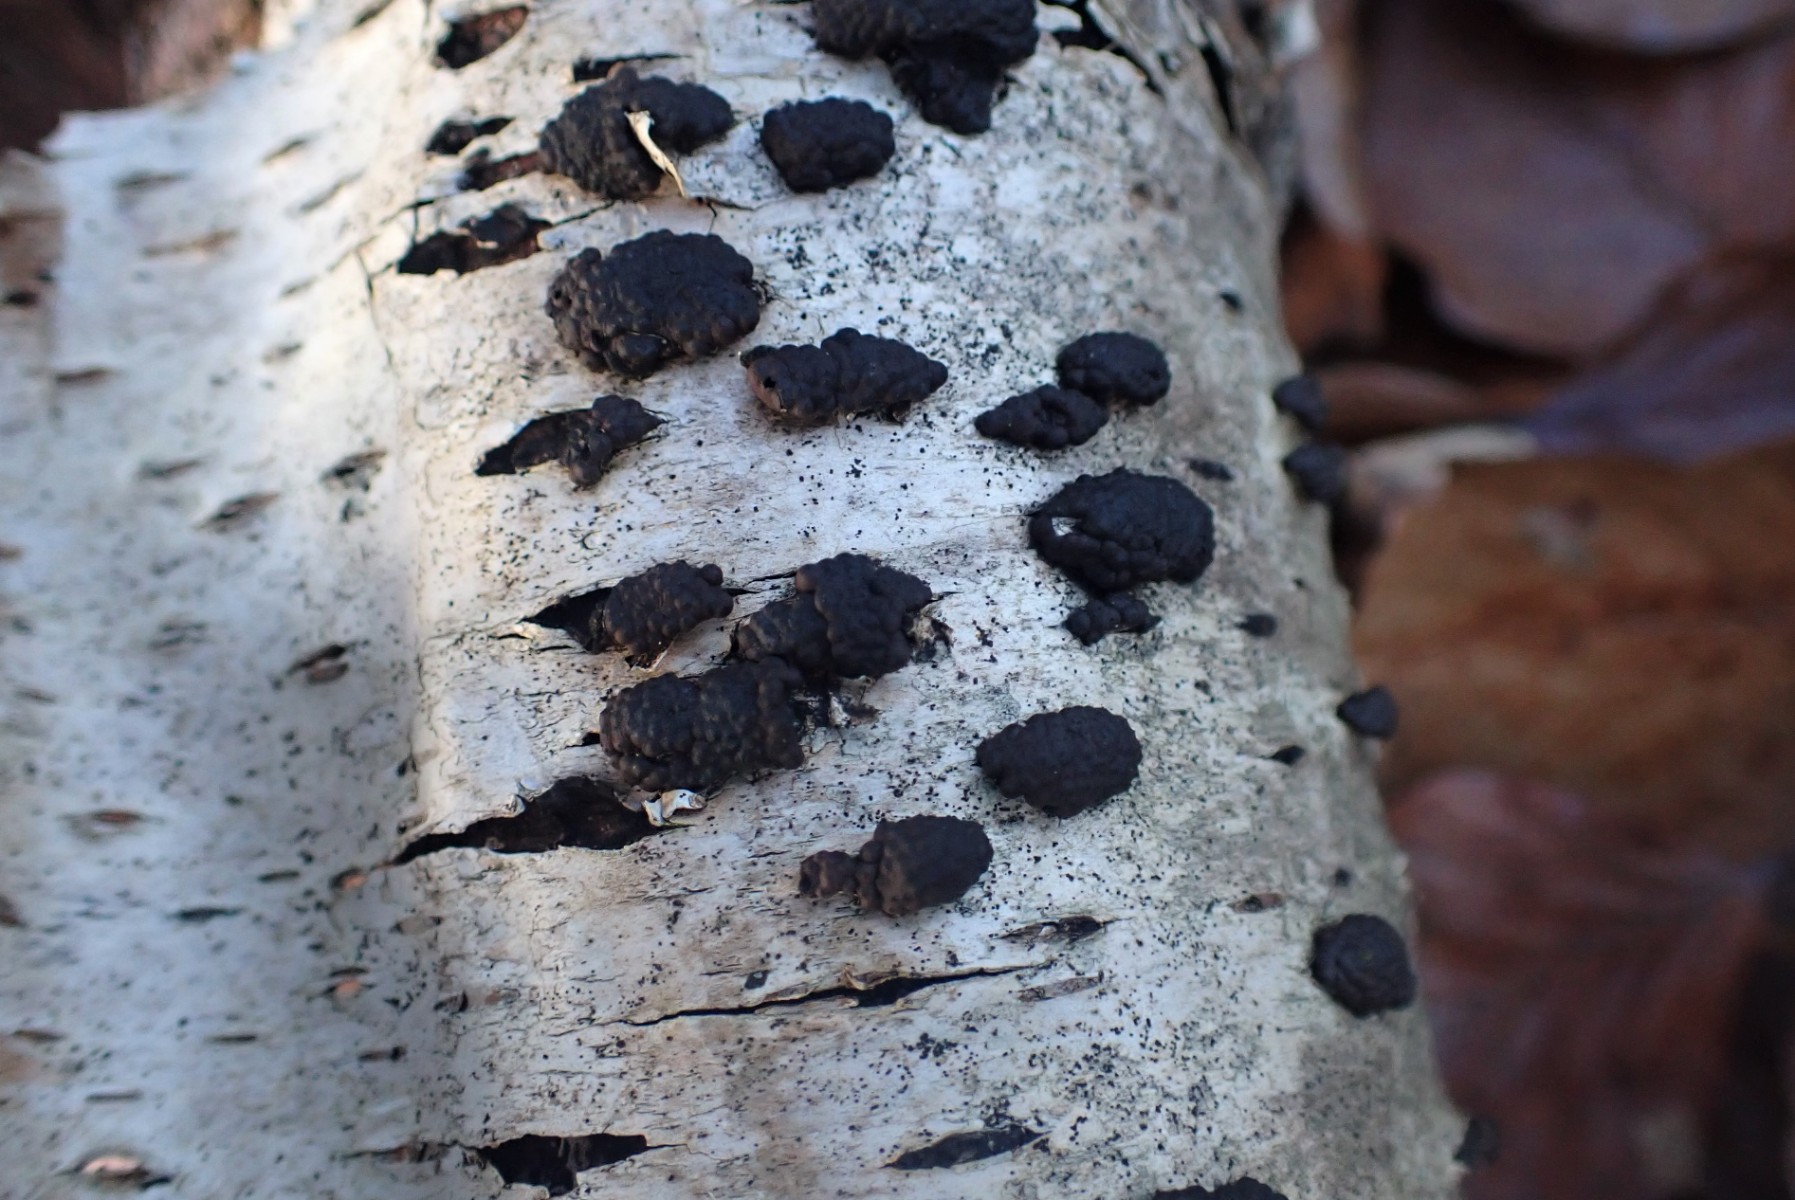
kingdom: Fungi
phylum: Ascomycota
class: Sordariomycetes
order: Xylariales
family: Hypoxylaceae
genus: Jackrogersella
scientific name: Jackrogersella multiformis
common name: foranderlig kulbær
